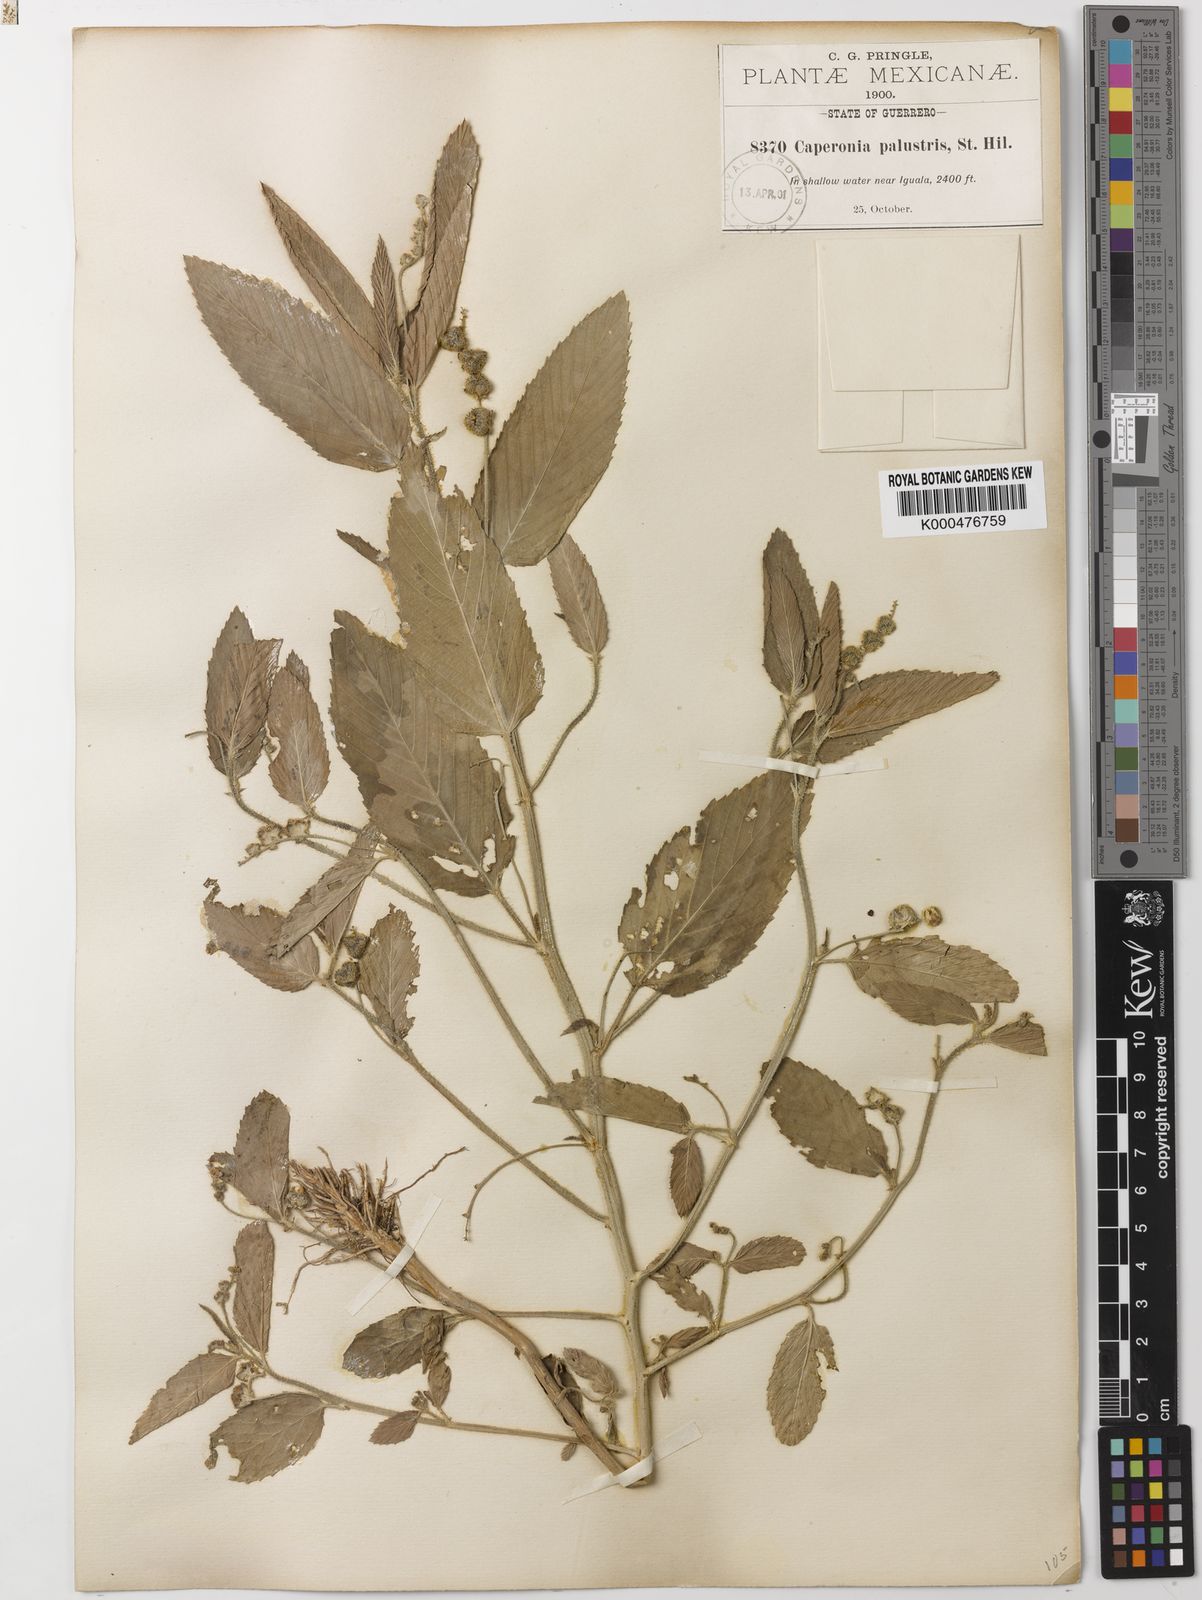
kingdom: Plantae
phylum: Tracheophyta
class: Magnoliopsida
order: Malpighiales
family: Euphorbiaceae
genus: Caperonia
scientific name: Caperonia palustris
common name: Sacatrapo
